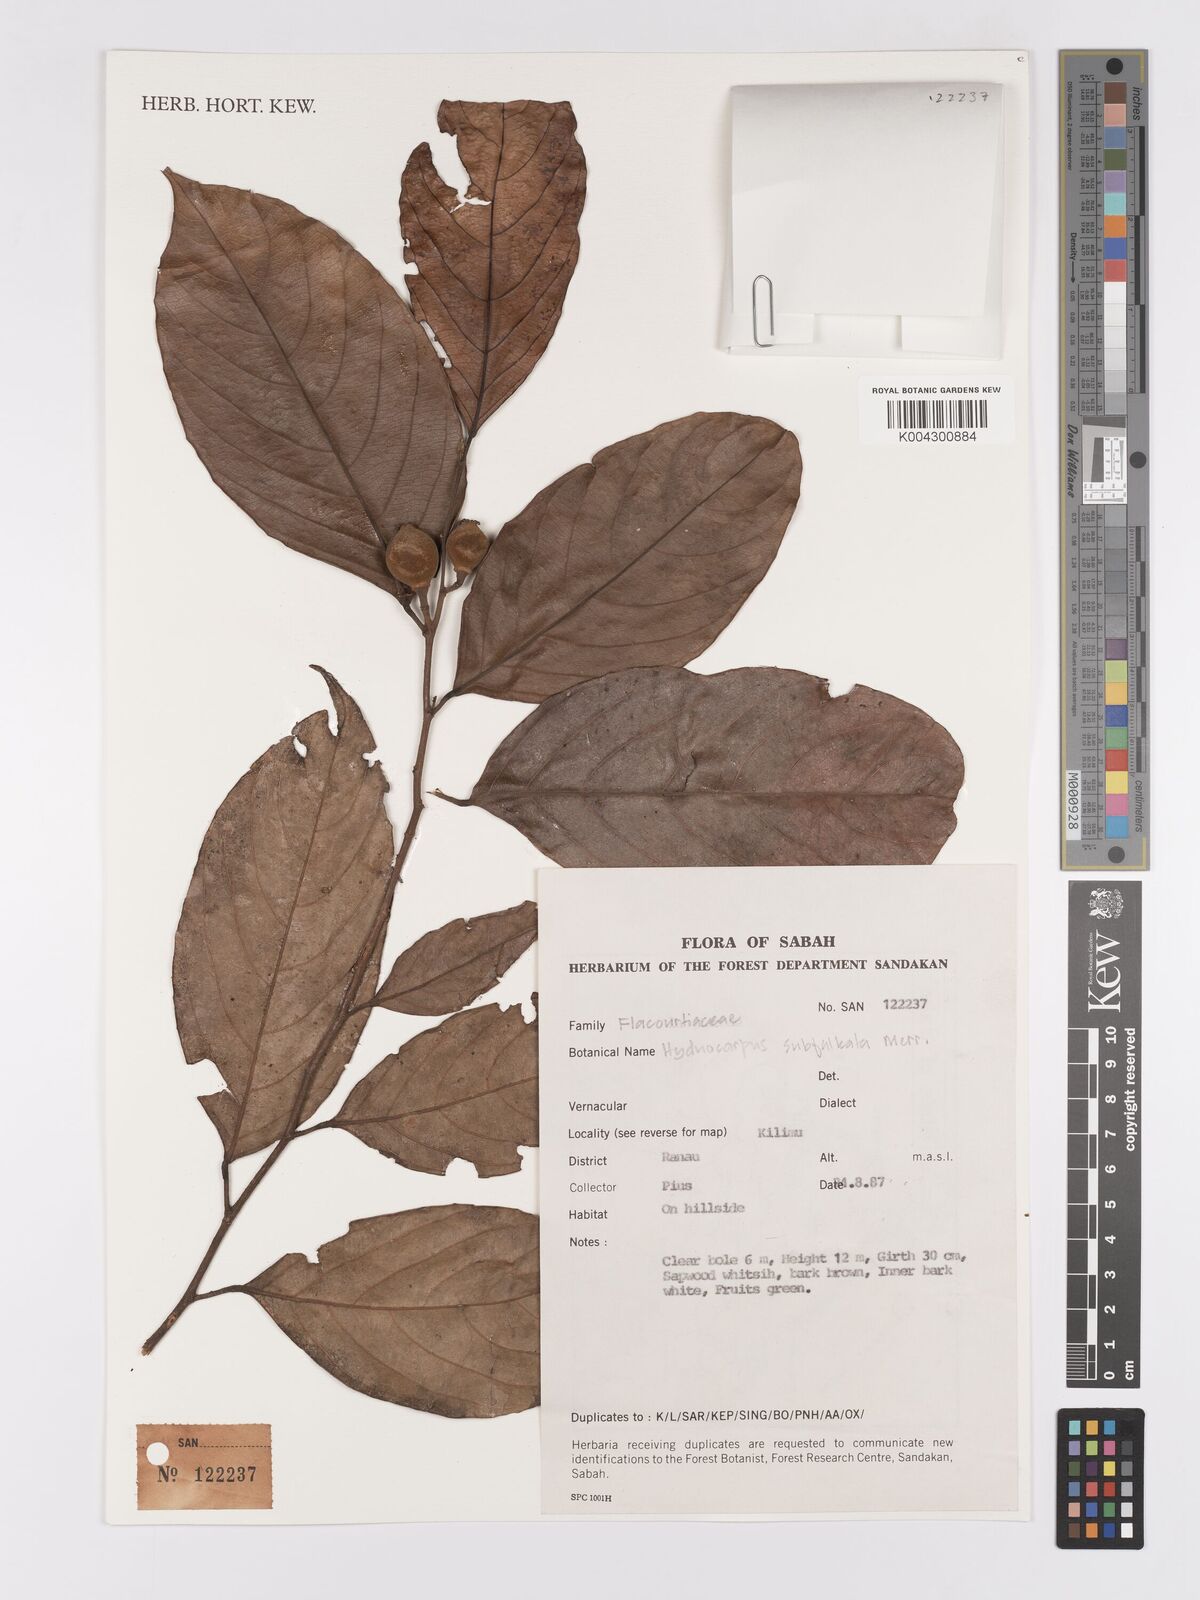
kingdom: Plantae
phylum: Tracheophyta
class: Magnoliopsida
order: Malpighiales
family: Achariaceae
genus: Hydnocarpus
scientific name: Hydnocarpus subfalcatus
